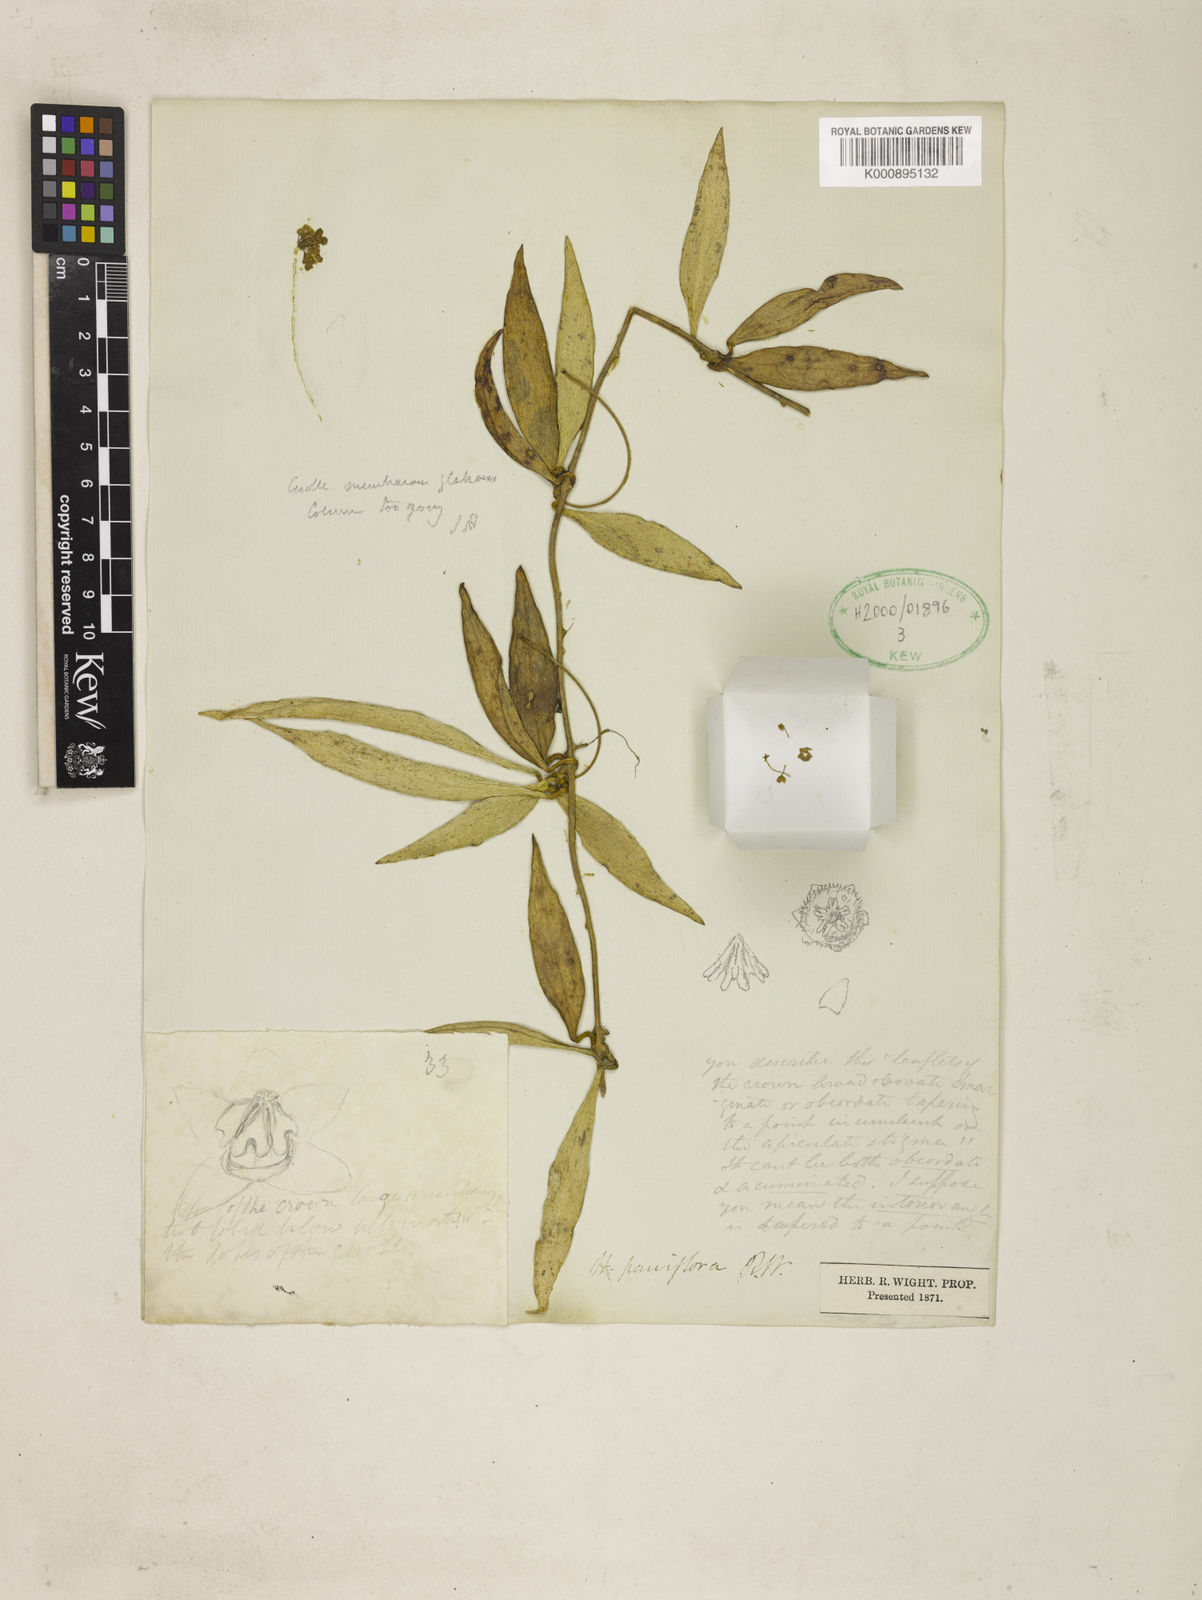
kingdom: Plantae
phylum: Tracheophyta
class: Magnoliopsida
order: Gentianales
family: Apocynaceae
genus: Hoya
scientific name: Hoya parviflora
